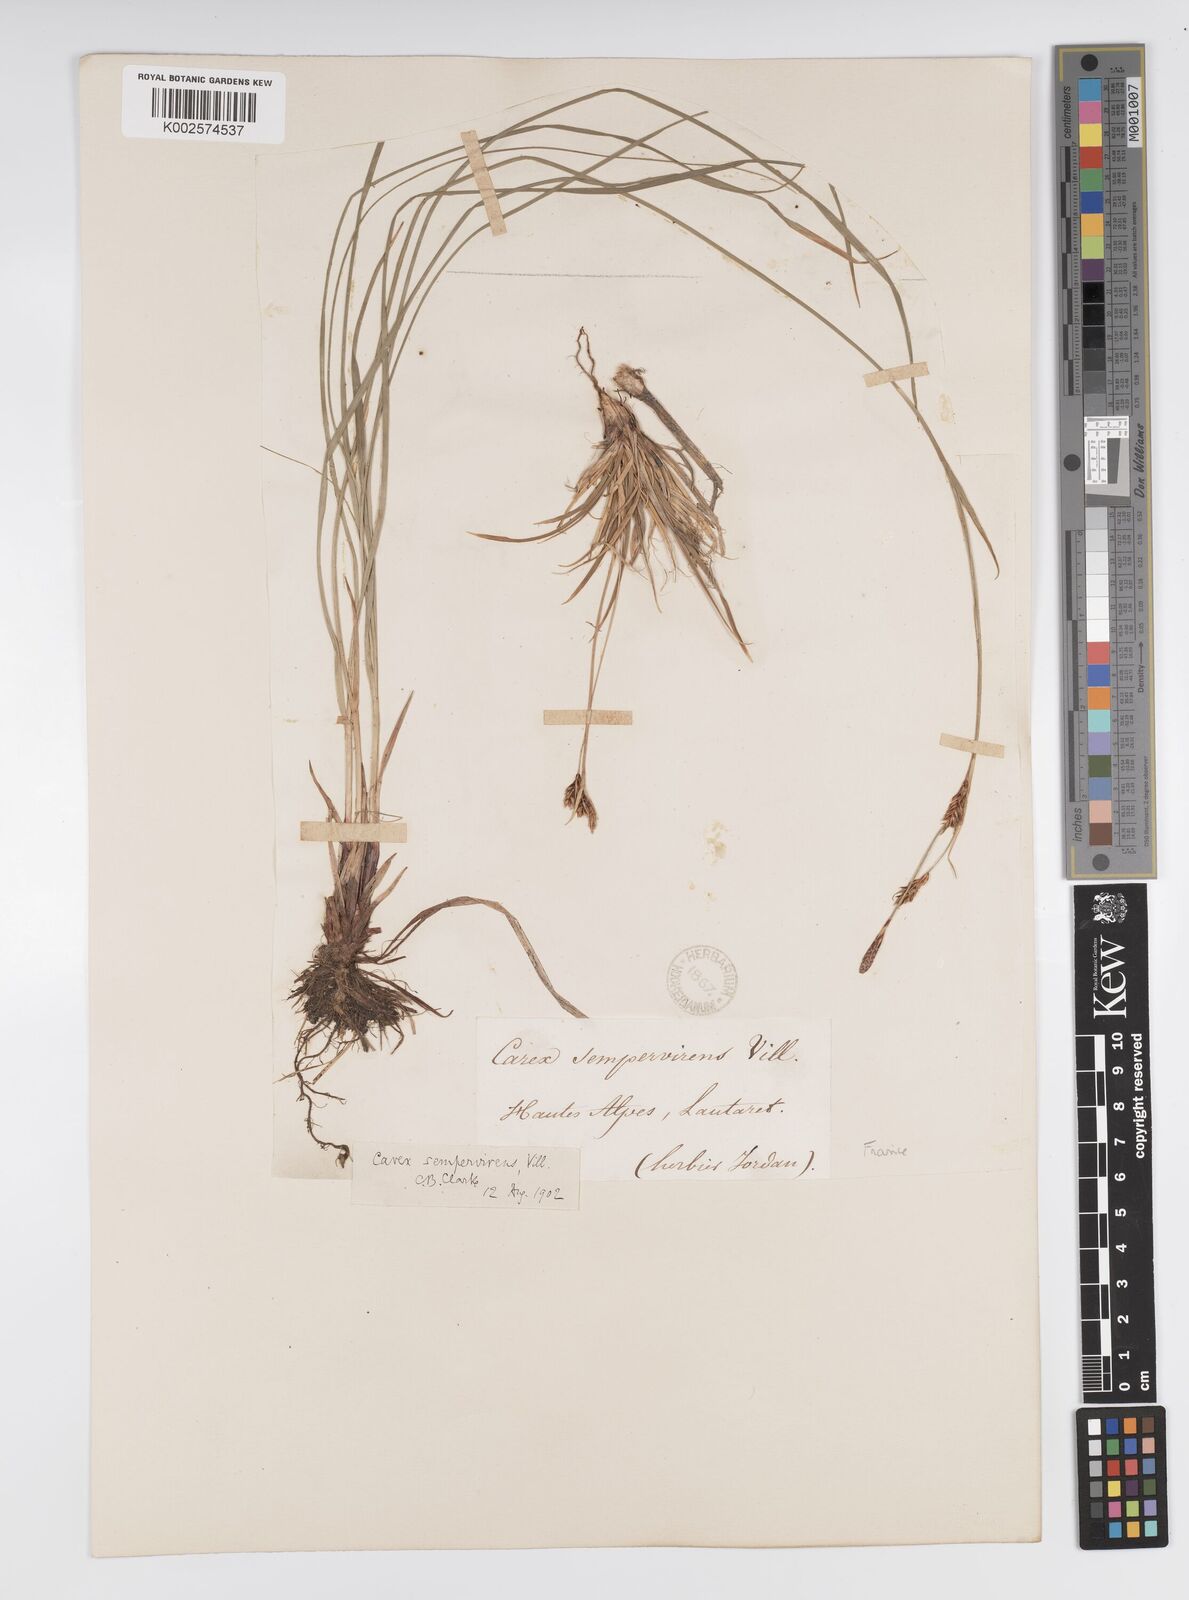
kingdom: Plantae
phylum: Tracheophyta
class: Liliopsida
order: Poales
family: Cyperaceae
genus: Carex
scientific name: Carex sempervirens
